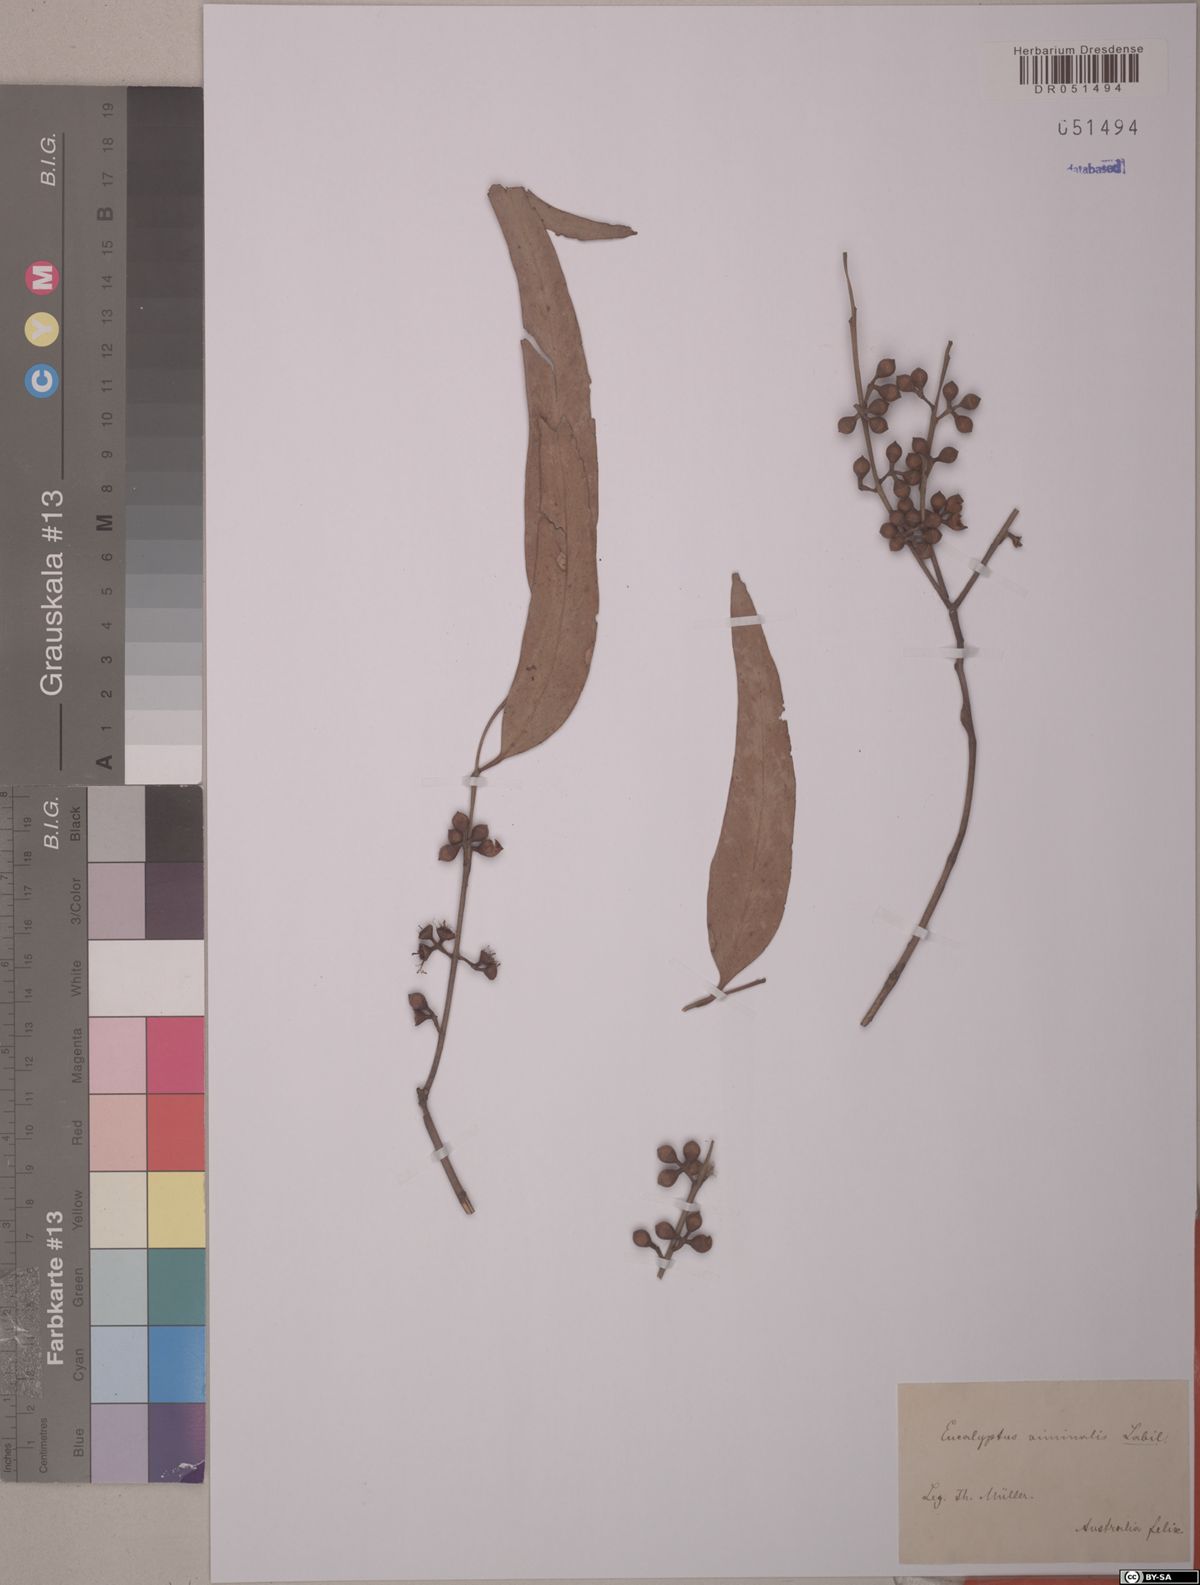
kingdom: Plantae
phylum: Tracheophyta
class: Magnoliopsida
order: Myrtales
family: Myrtaceae
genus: Eucalyptus
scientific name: Eucalyptus viminalis
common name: Manna gum
